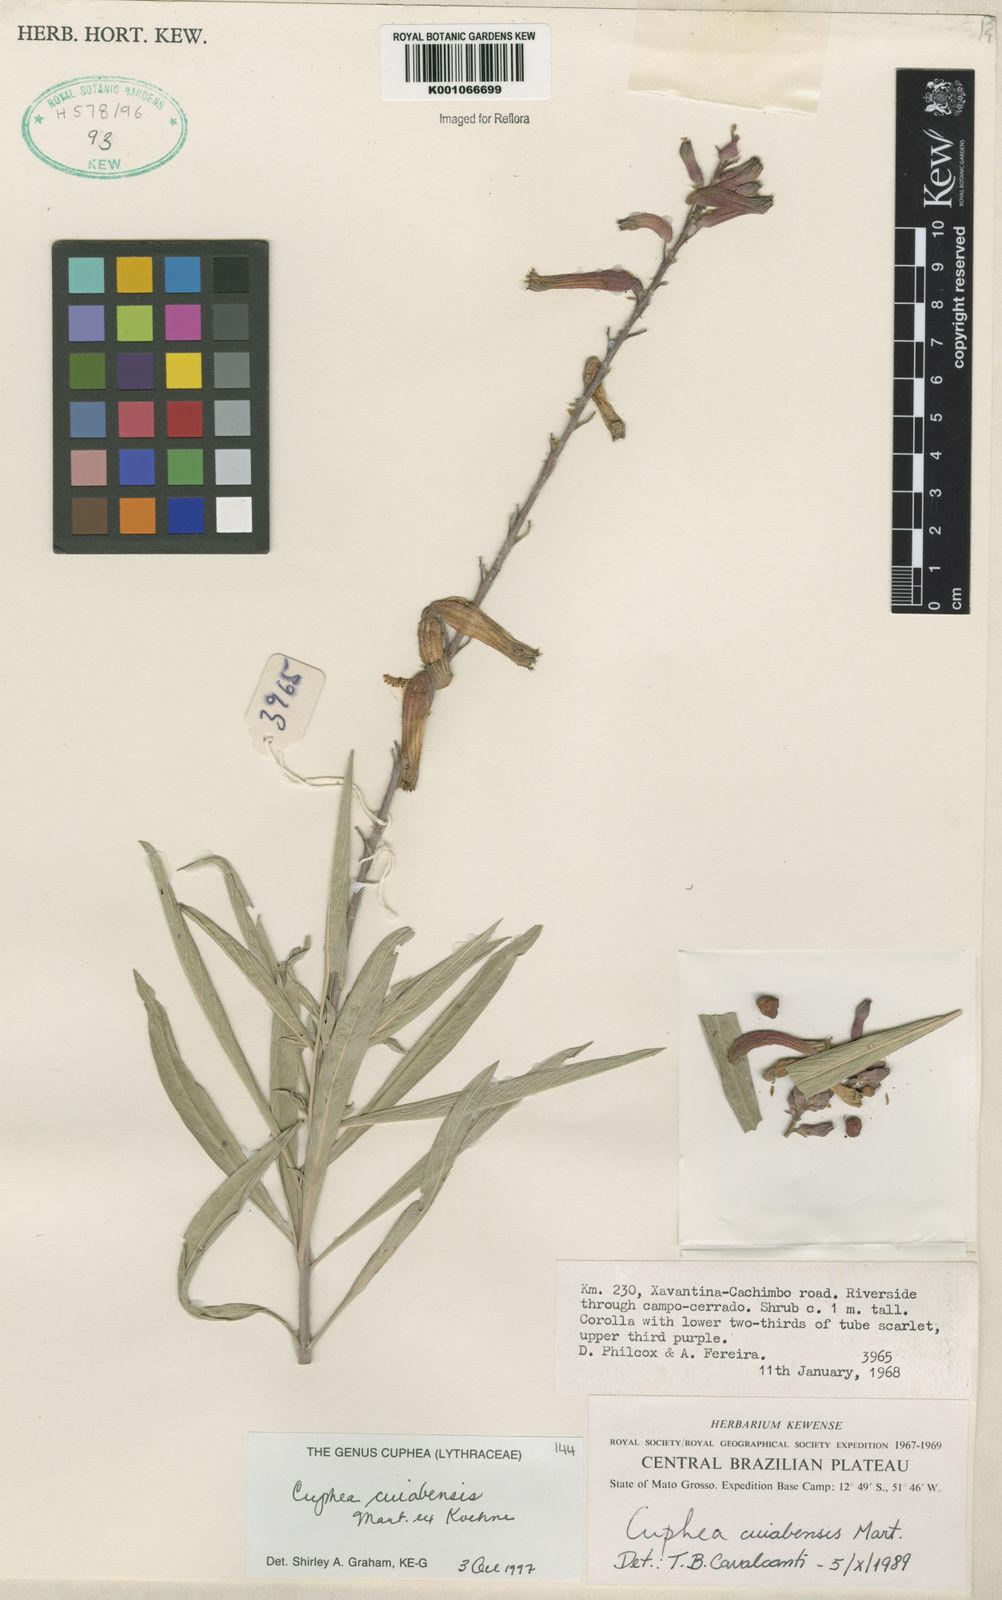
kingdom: Plantae
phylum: Tracheophyta
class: Magnoliopsida
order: Myrtales
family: Lythraceae
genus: Cuphea
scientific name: Cuphea melvilla
